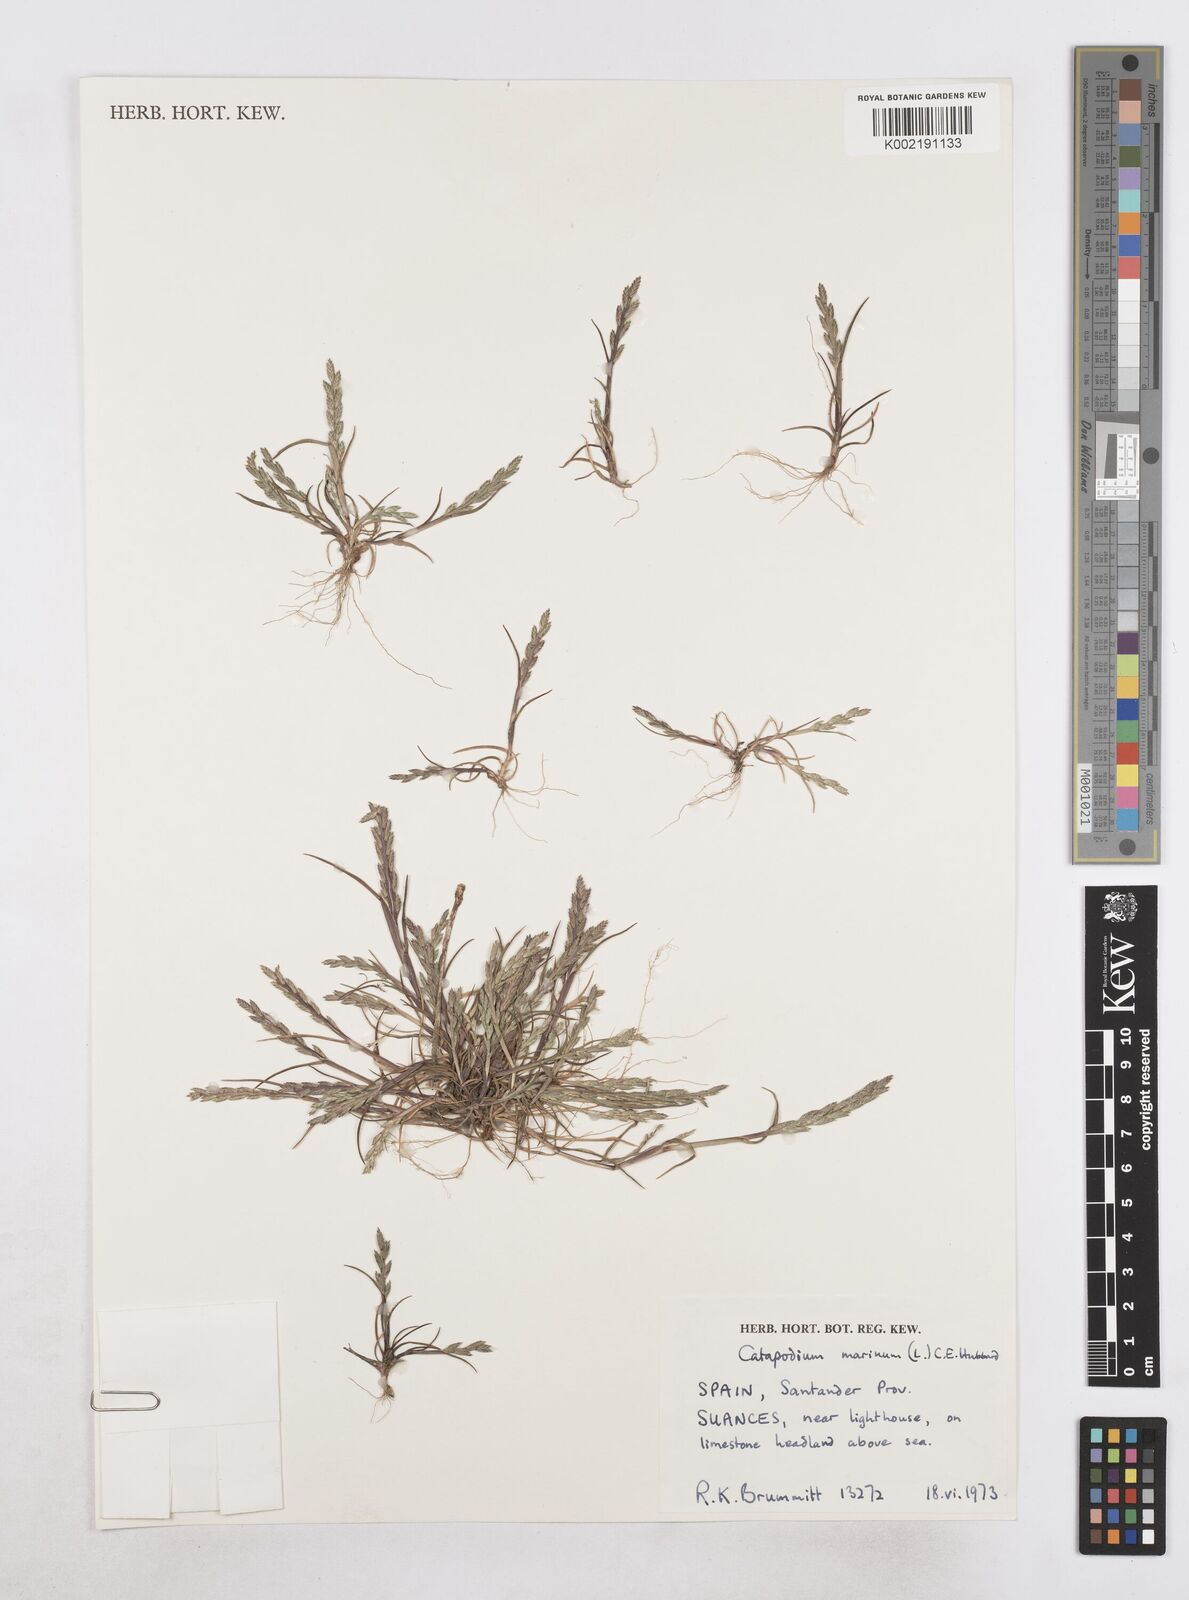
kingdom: Plantae
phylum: Tracheophyta
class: Liliopsida
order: Poales
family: Poaceae
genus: Catapodium
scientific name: Catapodium marinum
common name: Sea fern-grass
